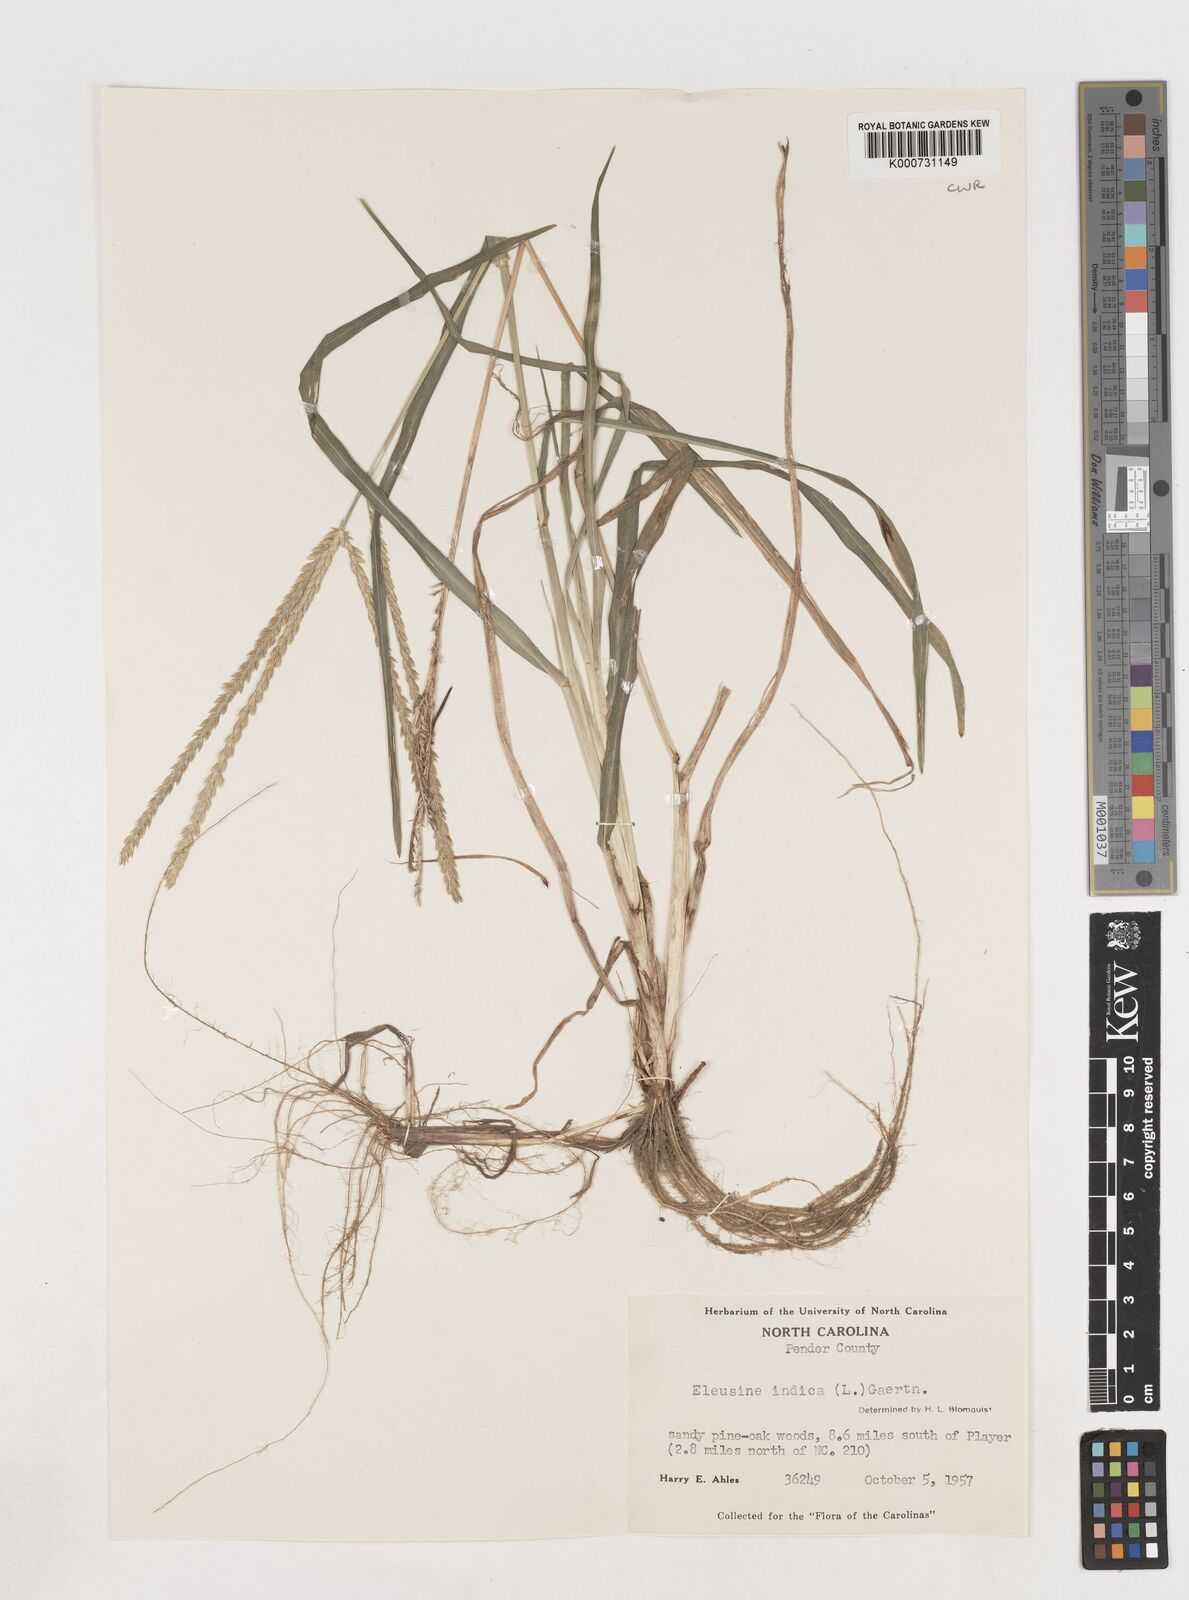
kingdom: Plantae
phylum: Tracheophyta
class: Liliopsida
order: Poales
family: Poaceae
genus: Eleusine
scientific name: Eleusine indica
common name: Yard-grass
